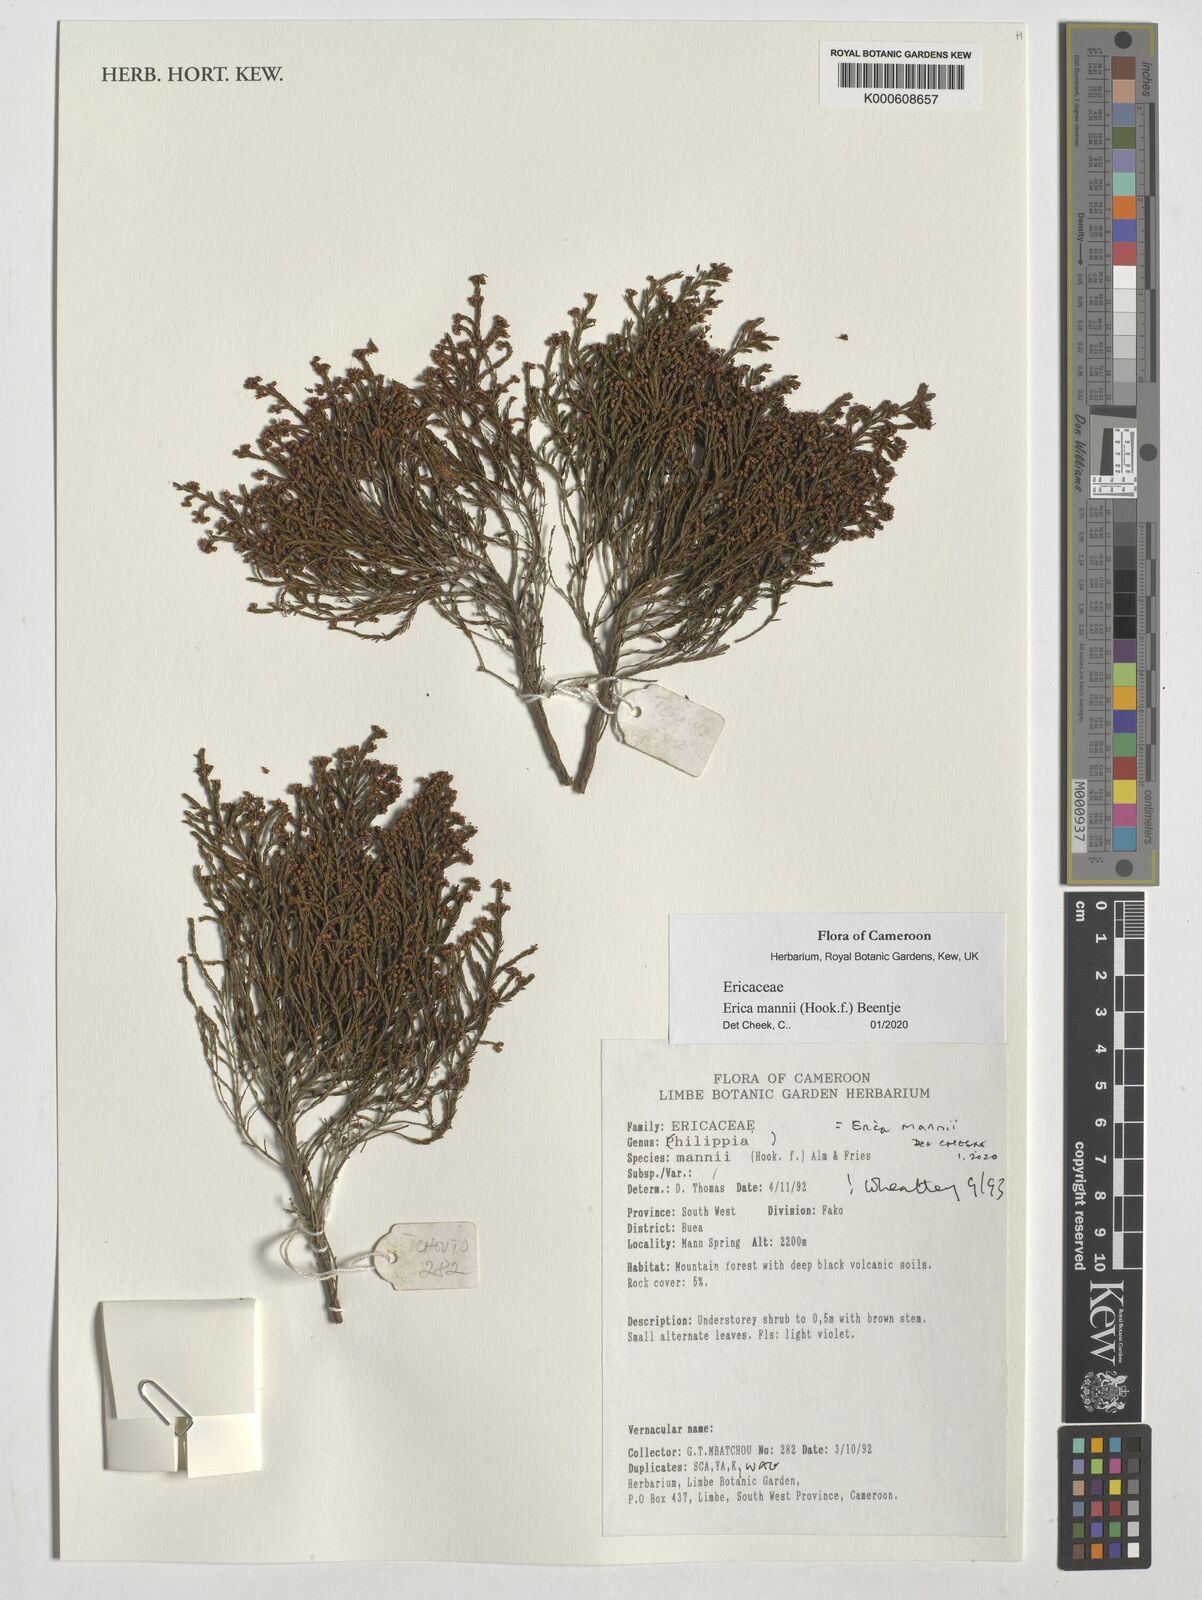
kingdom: Plantae
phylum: Tracheophyta
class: Magnoliopsida
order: Ericales
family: Ericaceae
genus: Erica
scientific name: Erica mannii
